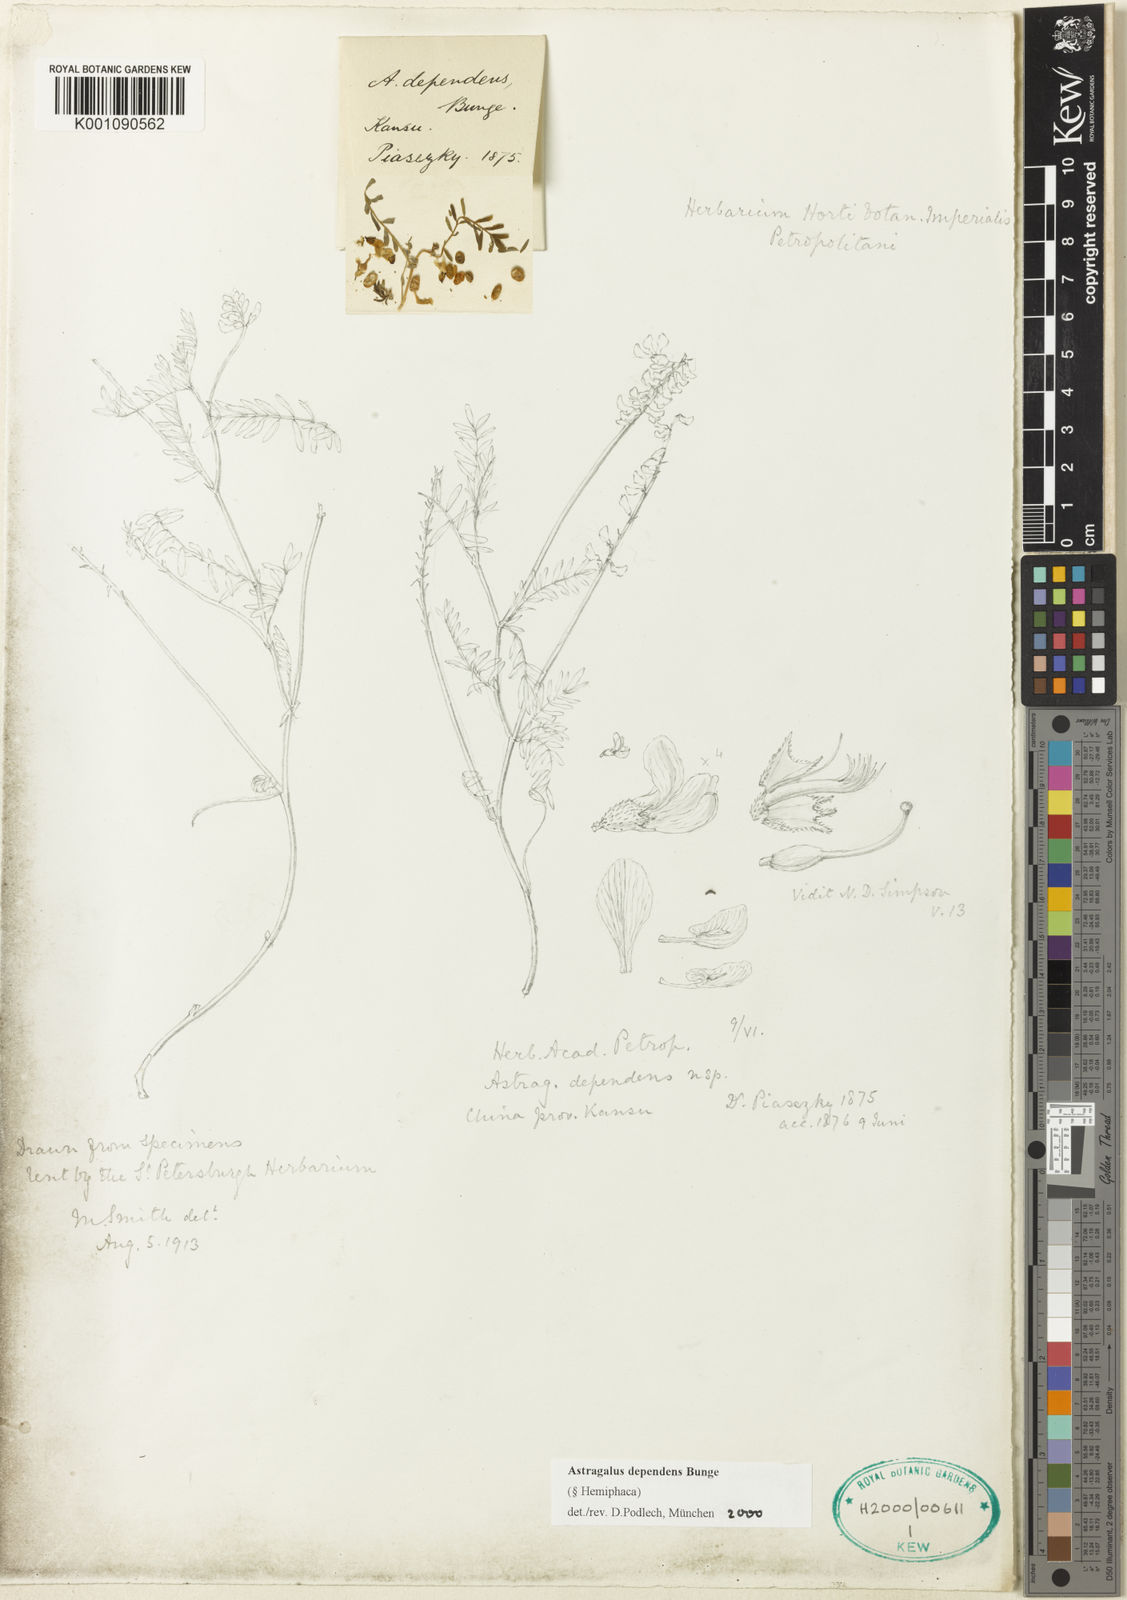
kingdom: Plantae
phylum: Tracheophyta
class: Magnoliopsida
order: Fabales
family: Fabaceae
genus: Astragalus
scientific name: Astragalus
